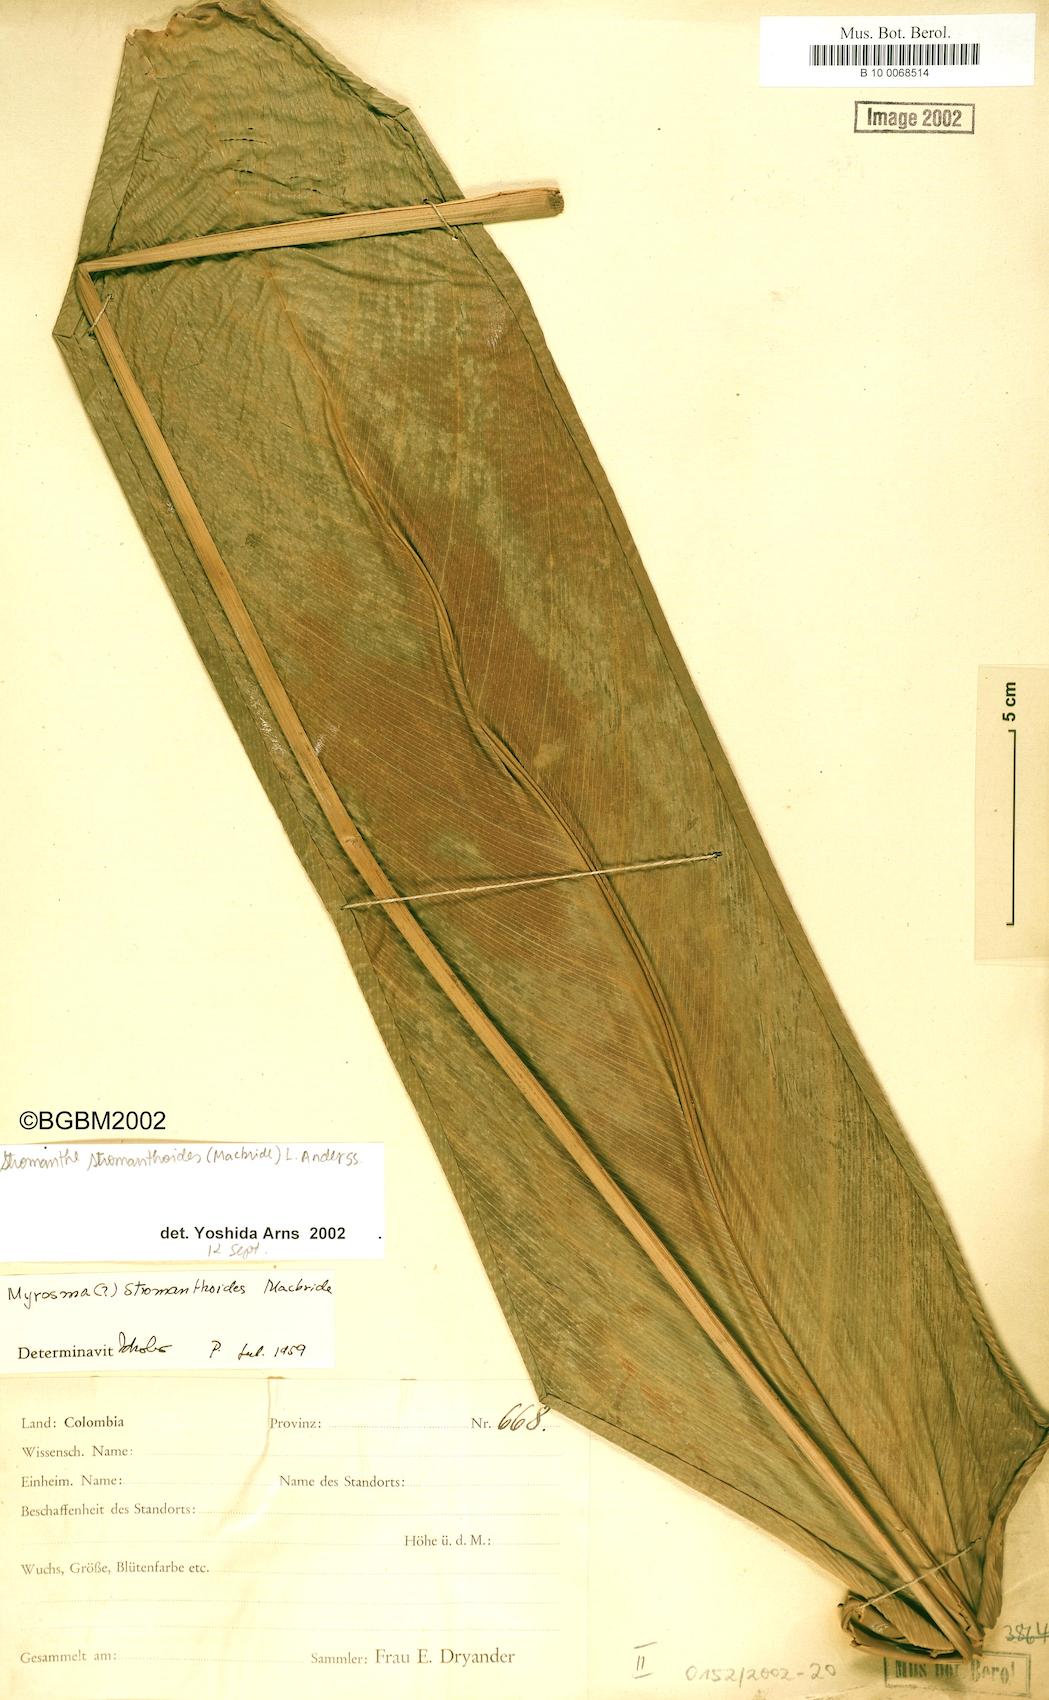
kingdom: Plantae
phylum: Tracheophyta
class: Liliopsida
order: Zingiberales
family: Marantaceae
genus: Stromanthe
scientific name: Stromanthe stromanthoides
